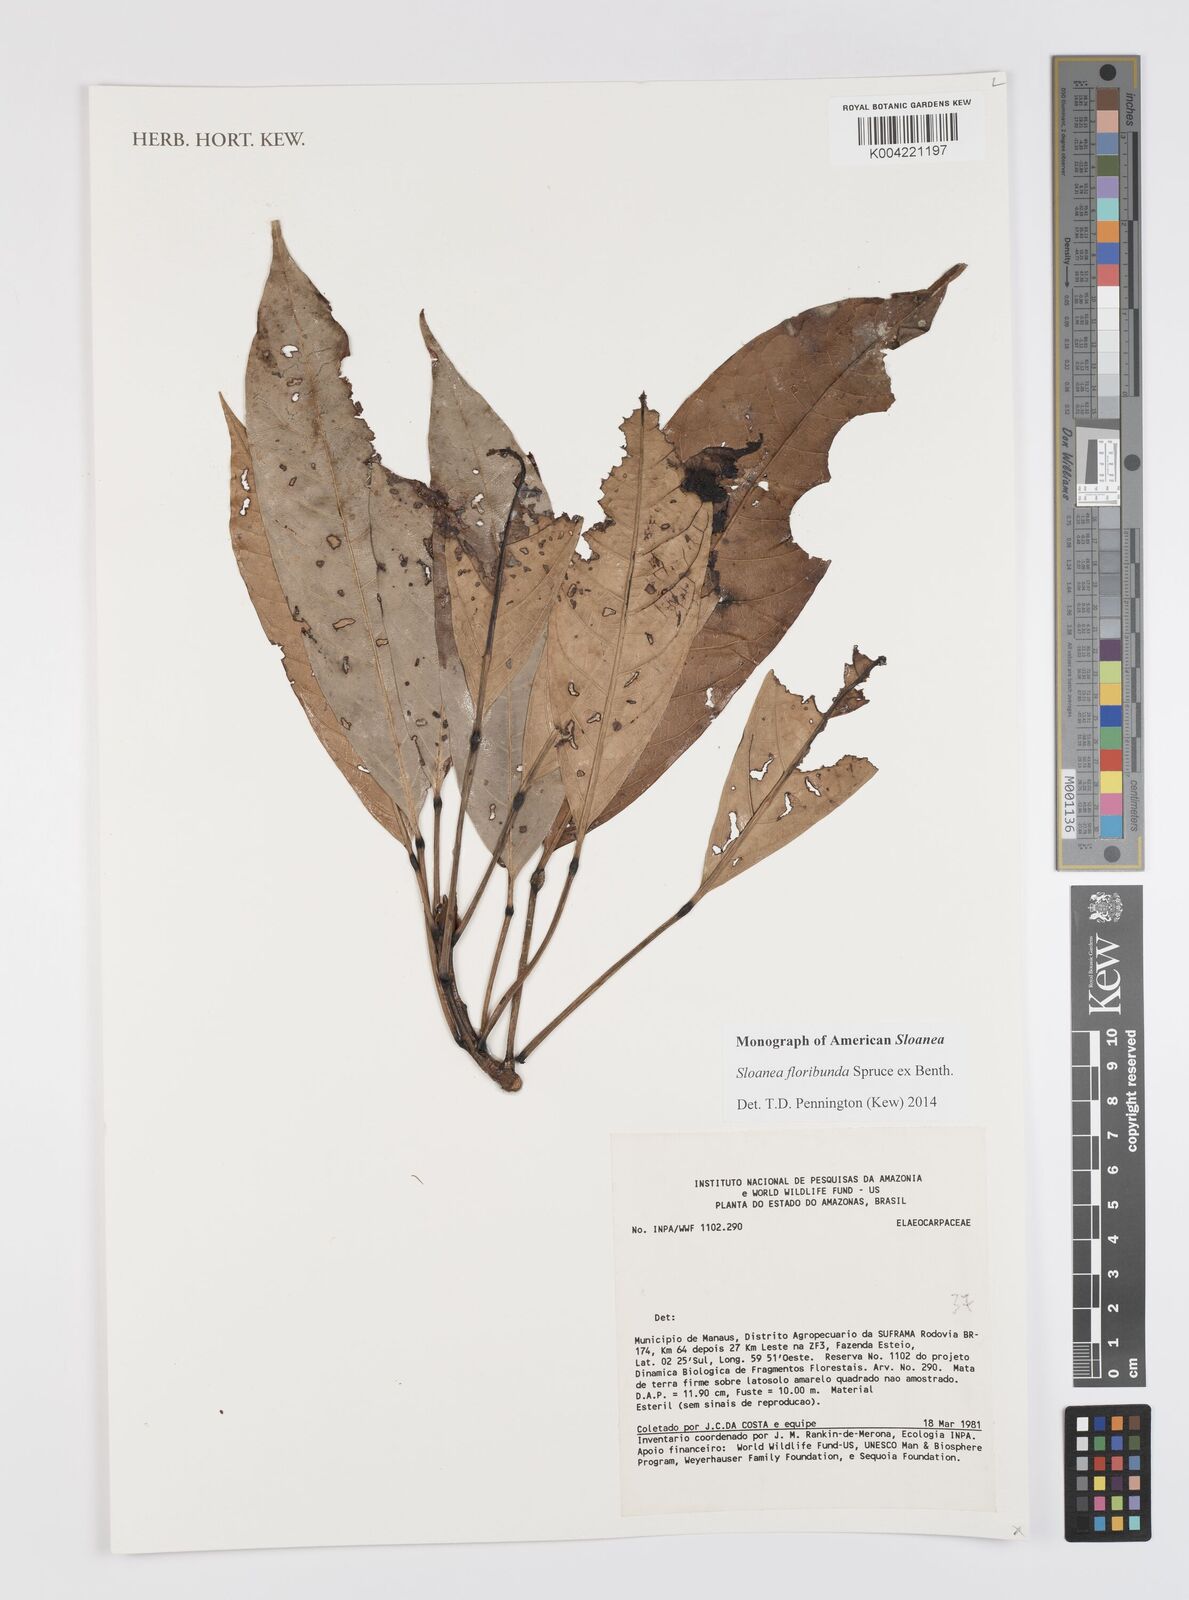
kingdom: Plantae
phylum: Tracheophyta
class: Magnoliopsida
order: Oxalidales
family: Elaeocarpaceae
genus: Sloanea
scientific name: Sloanea floribunda
